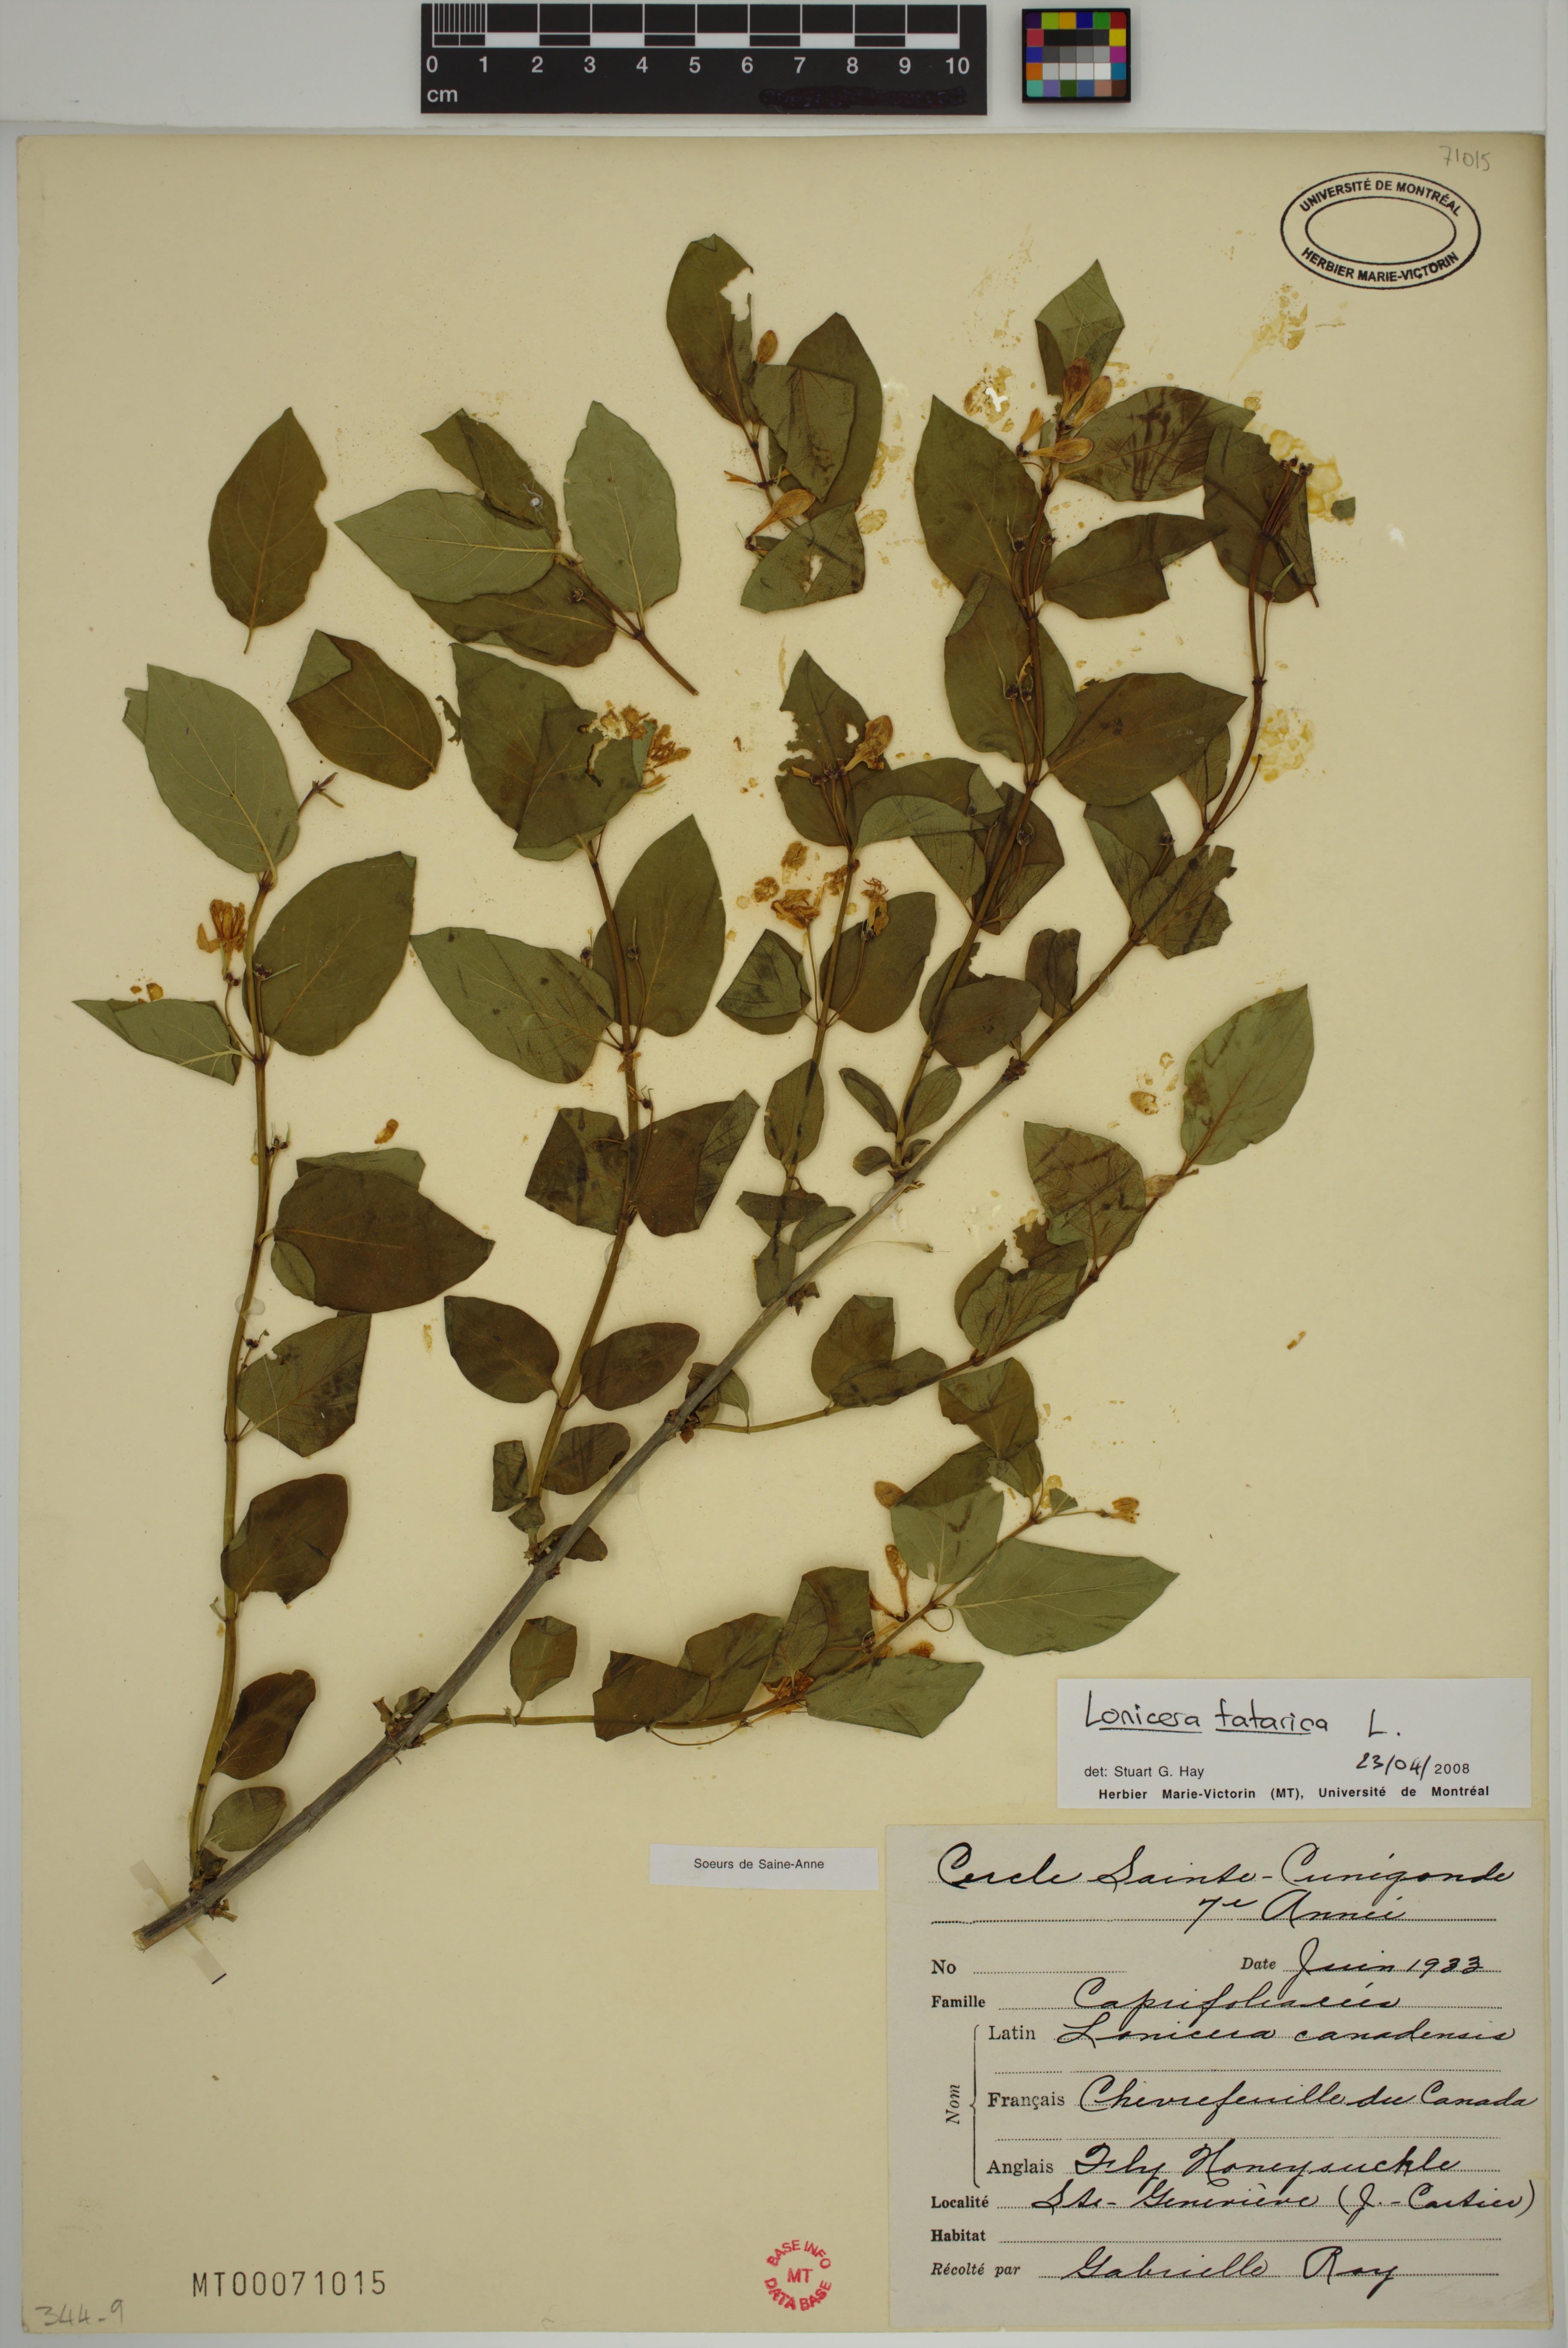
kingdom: Plantae
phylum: Tracheophyta
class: Magnoliopsida
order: Dipsacales
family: Caprifoliaceae
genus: Lonicera
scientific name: Lonicera tatarica
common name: Tatarian honeysuckle
